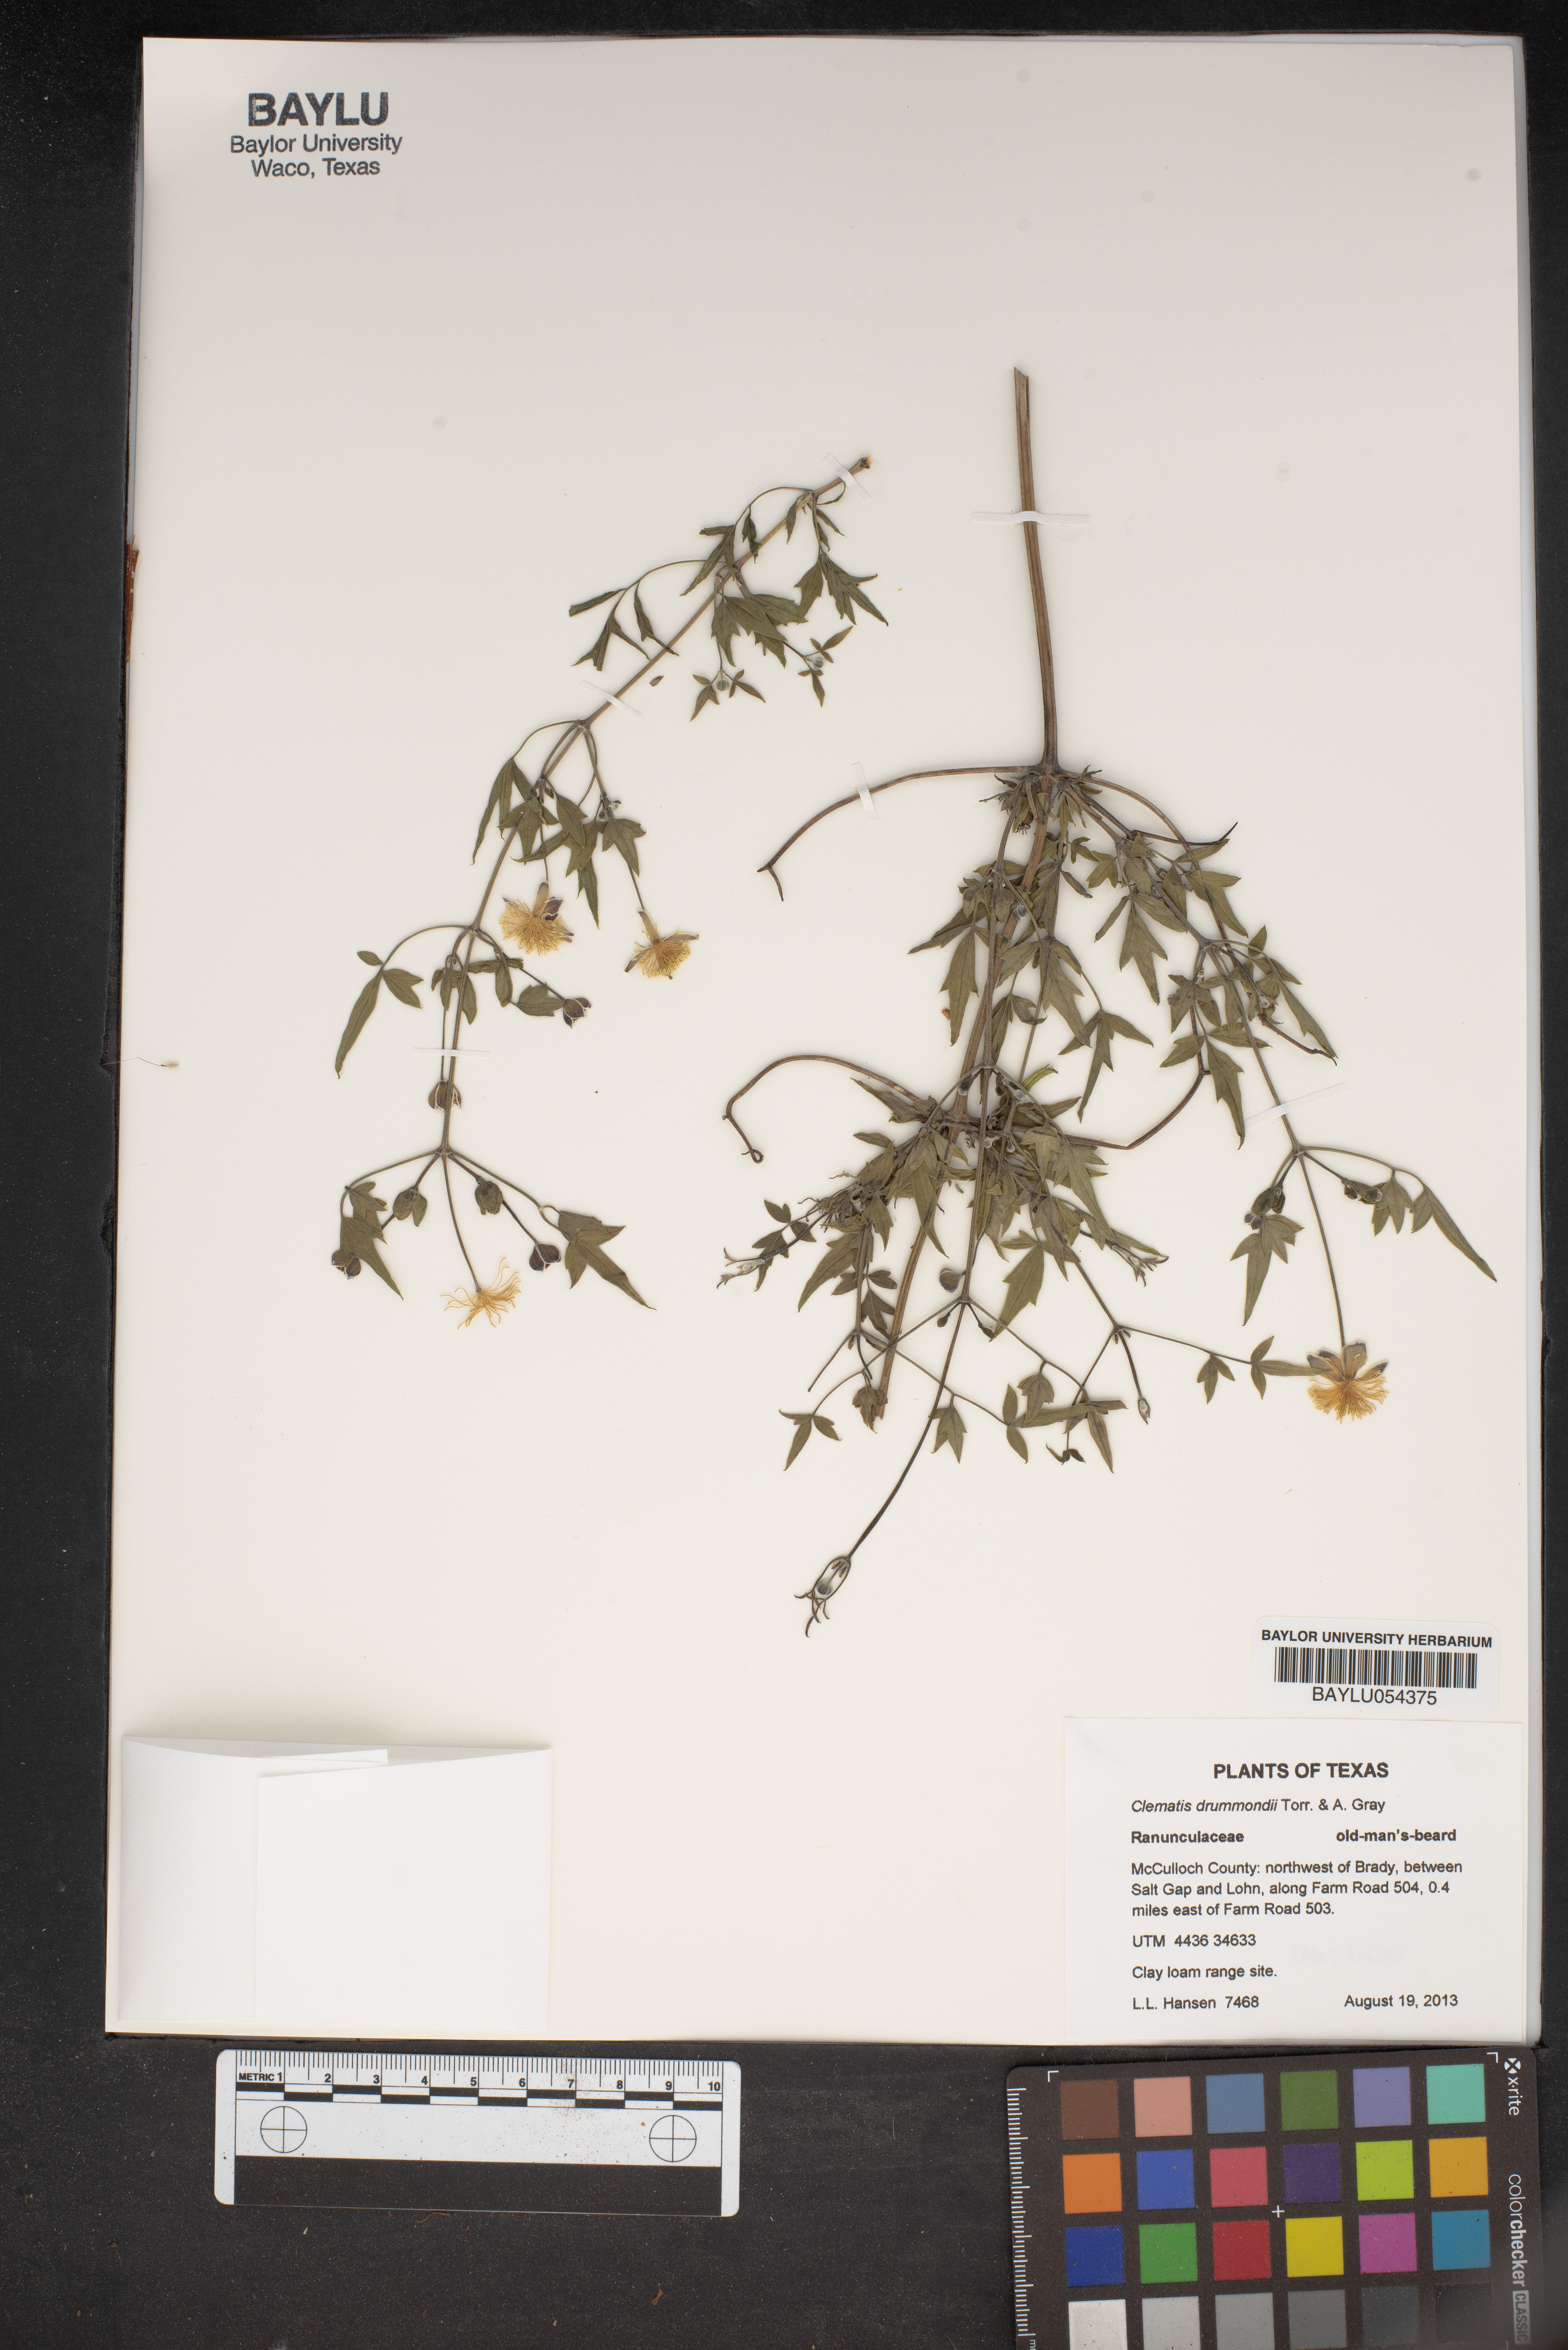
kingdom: Plantae
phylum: Tracheophyta
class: Magnoliopsida
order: Ranunculales
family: Ranunculaceae
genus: Clematis
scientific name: Clematis drummondii
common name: Texas virgin's bower
